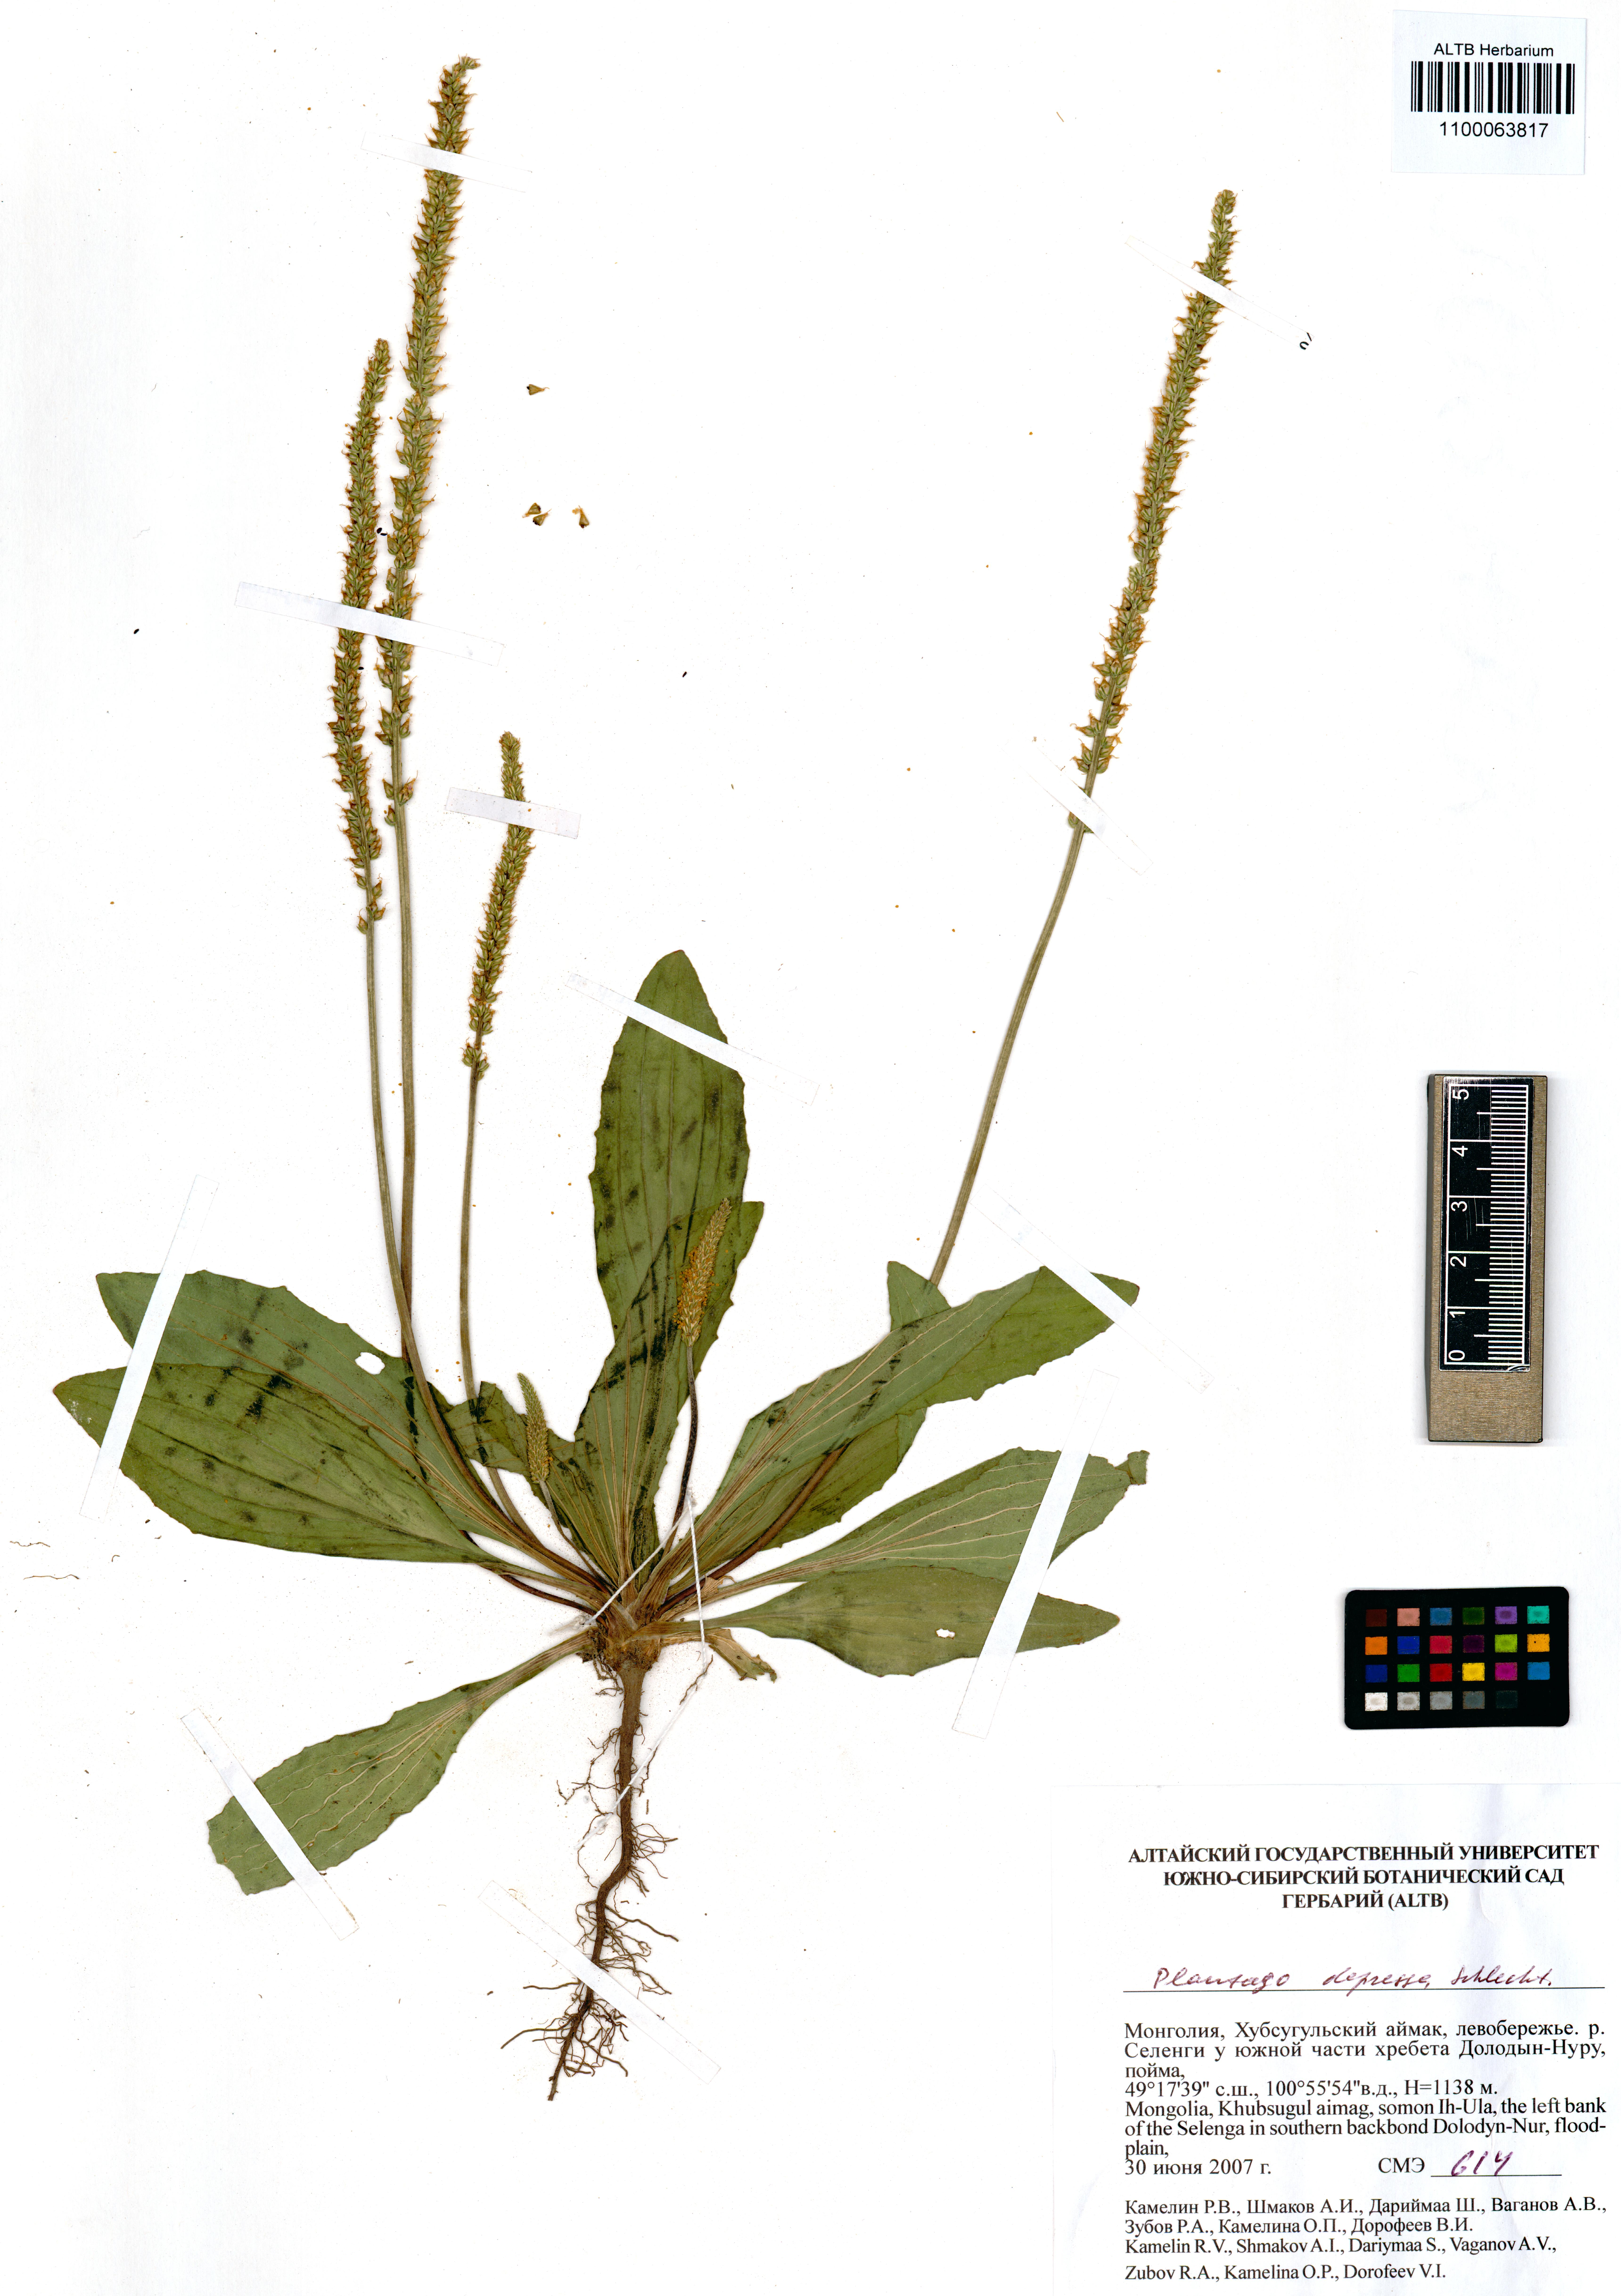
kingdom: Plantae
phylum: Tracheophyta
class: Magnoliopsida
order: Lamiales
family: Plantaginaceae
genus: Plantago
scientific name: Plantago depressa
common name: Depressed plantain
